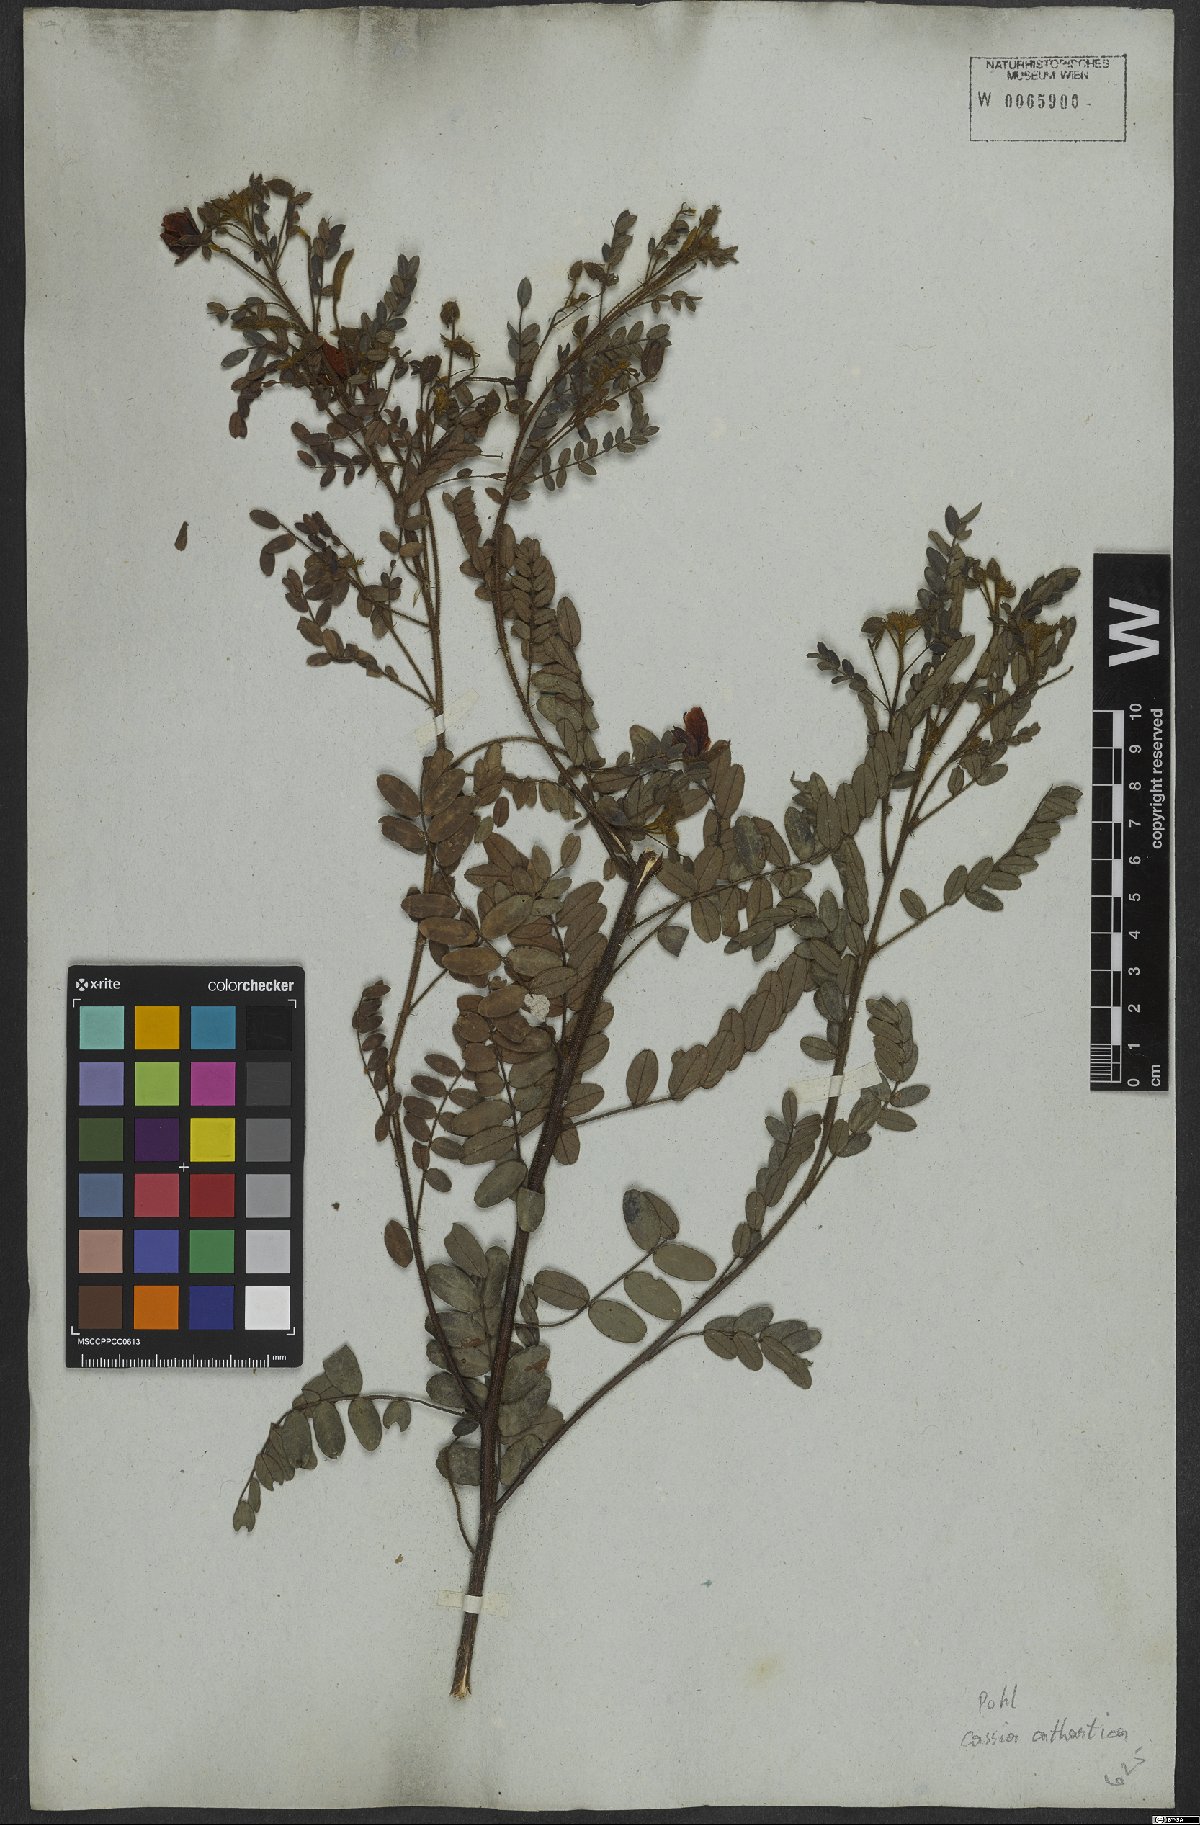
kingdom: Plantae
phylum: Tracheophyta
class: Magnoliopsida
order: Fabales
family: Fabaceae
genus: Chamaecrista
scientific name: Chamaecrista cathartica
